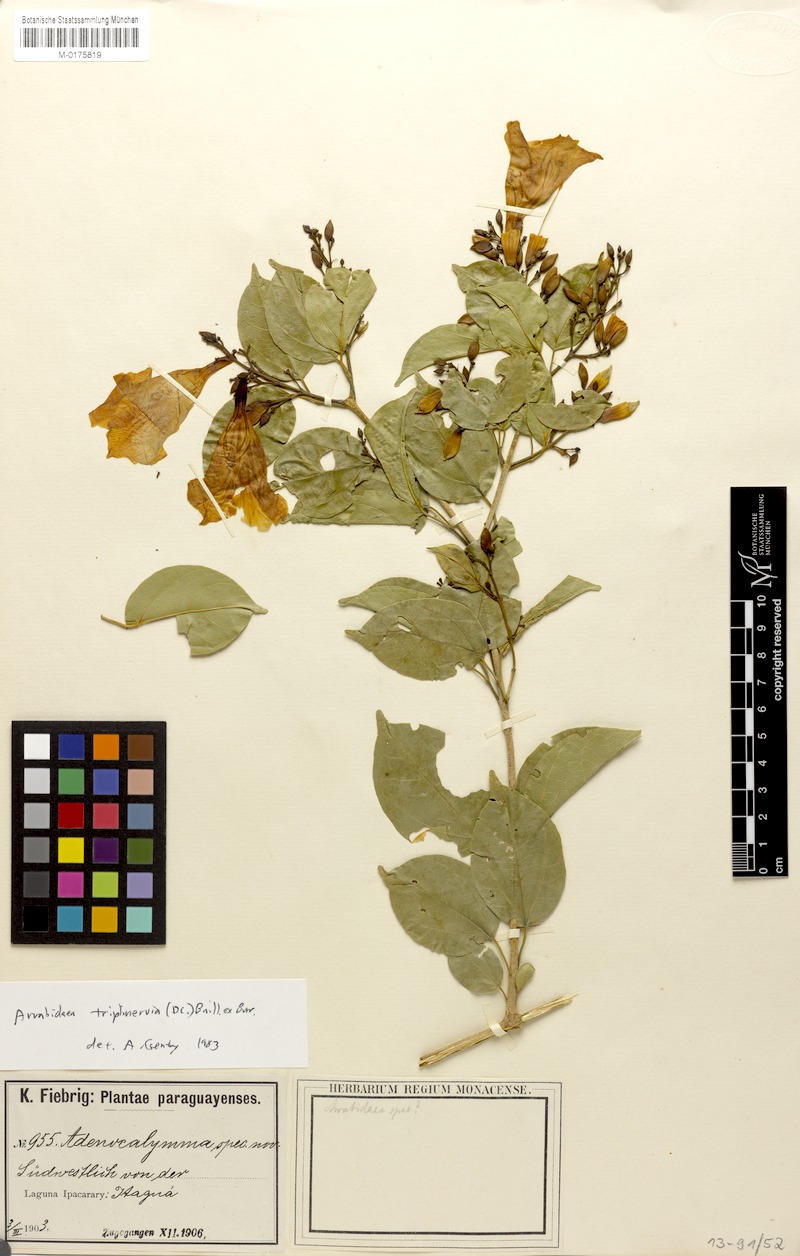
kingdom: Plantae
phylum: Tracheophyta
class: Magnoliopsida
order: Lamiales
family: Bignoniaceae
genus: Fridericia
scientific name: Fridericia triplinervia
